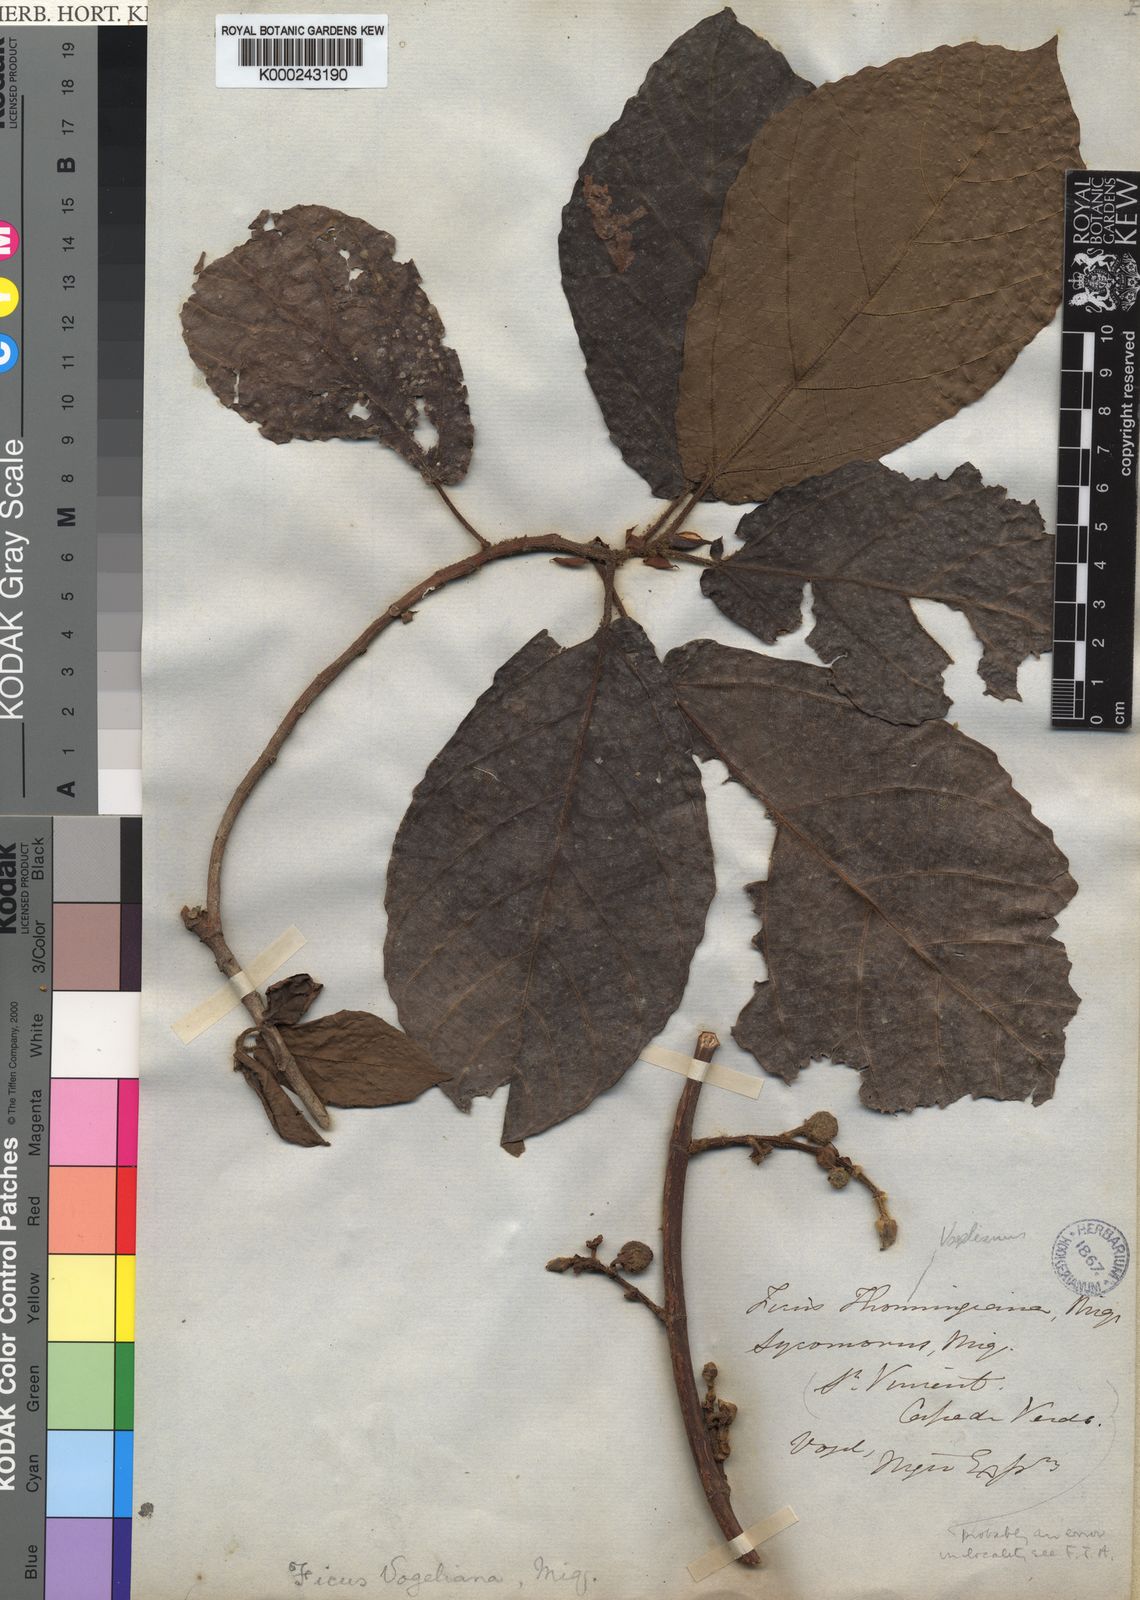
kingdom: Plantae
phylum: Tracheophyta
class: Magnoliopsida
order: Rosales
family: Moraceae
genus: Ficus
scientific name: Ficus vogeliana
